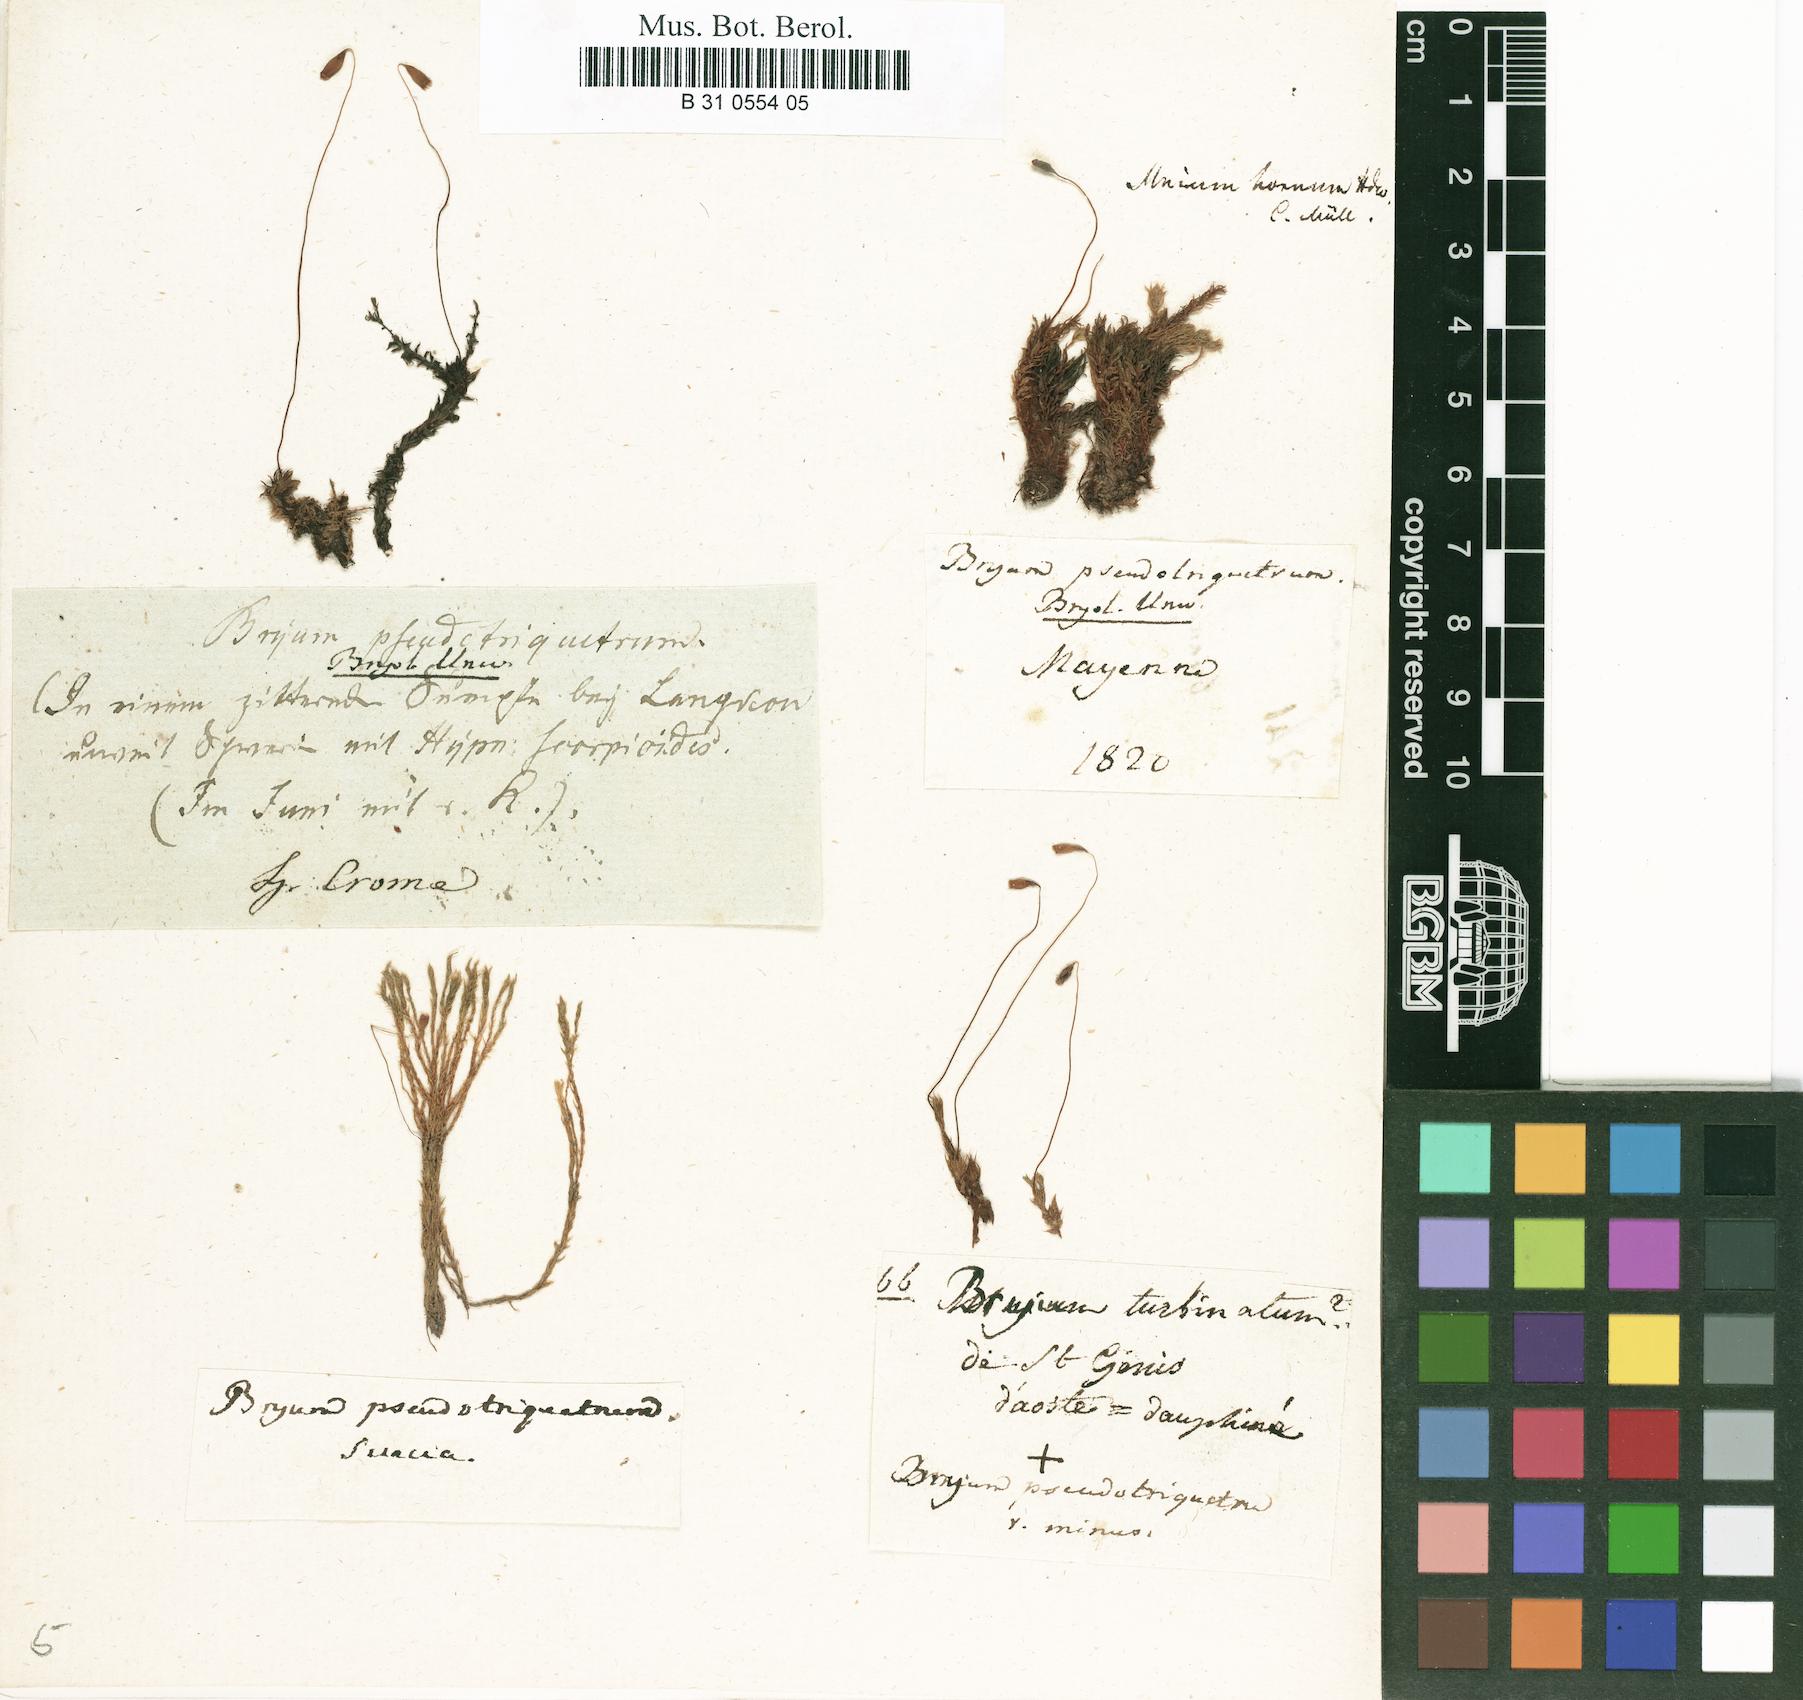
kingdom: Plantae
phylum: Bryophyta
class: Bryopsida
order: Bryales
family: Bryaceae
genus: Ptychostomum
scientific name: Ptychostomum pseudotriquetrum
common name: Long-leaved thread moss
